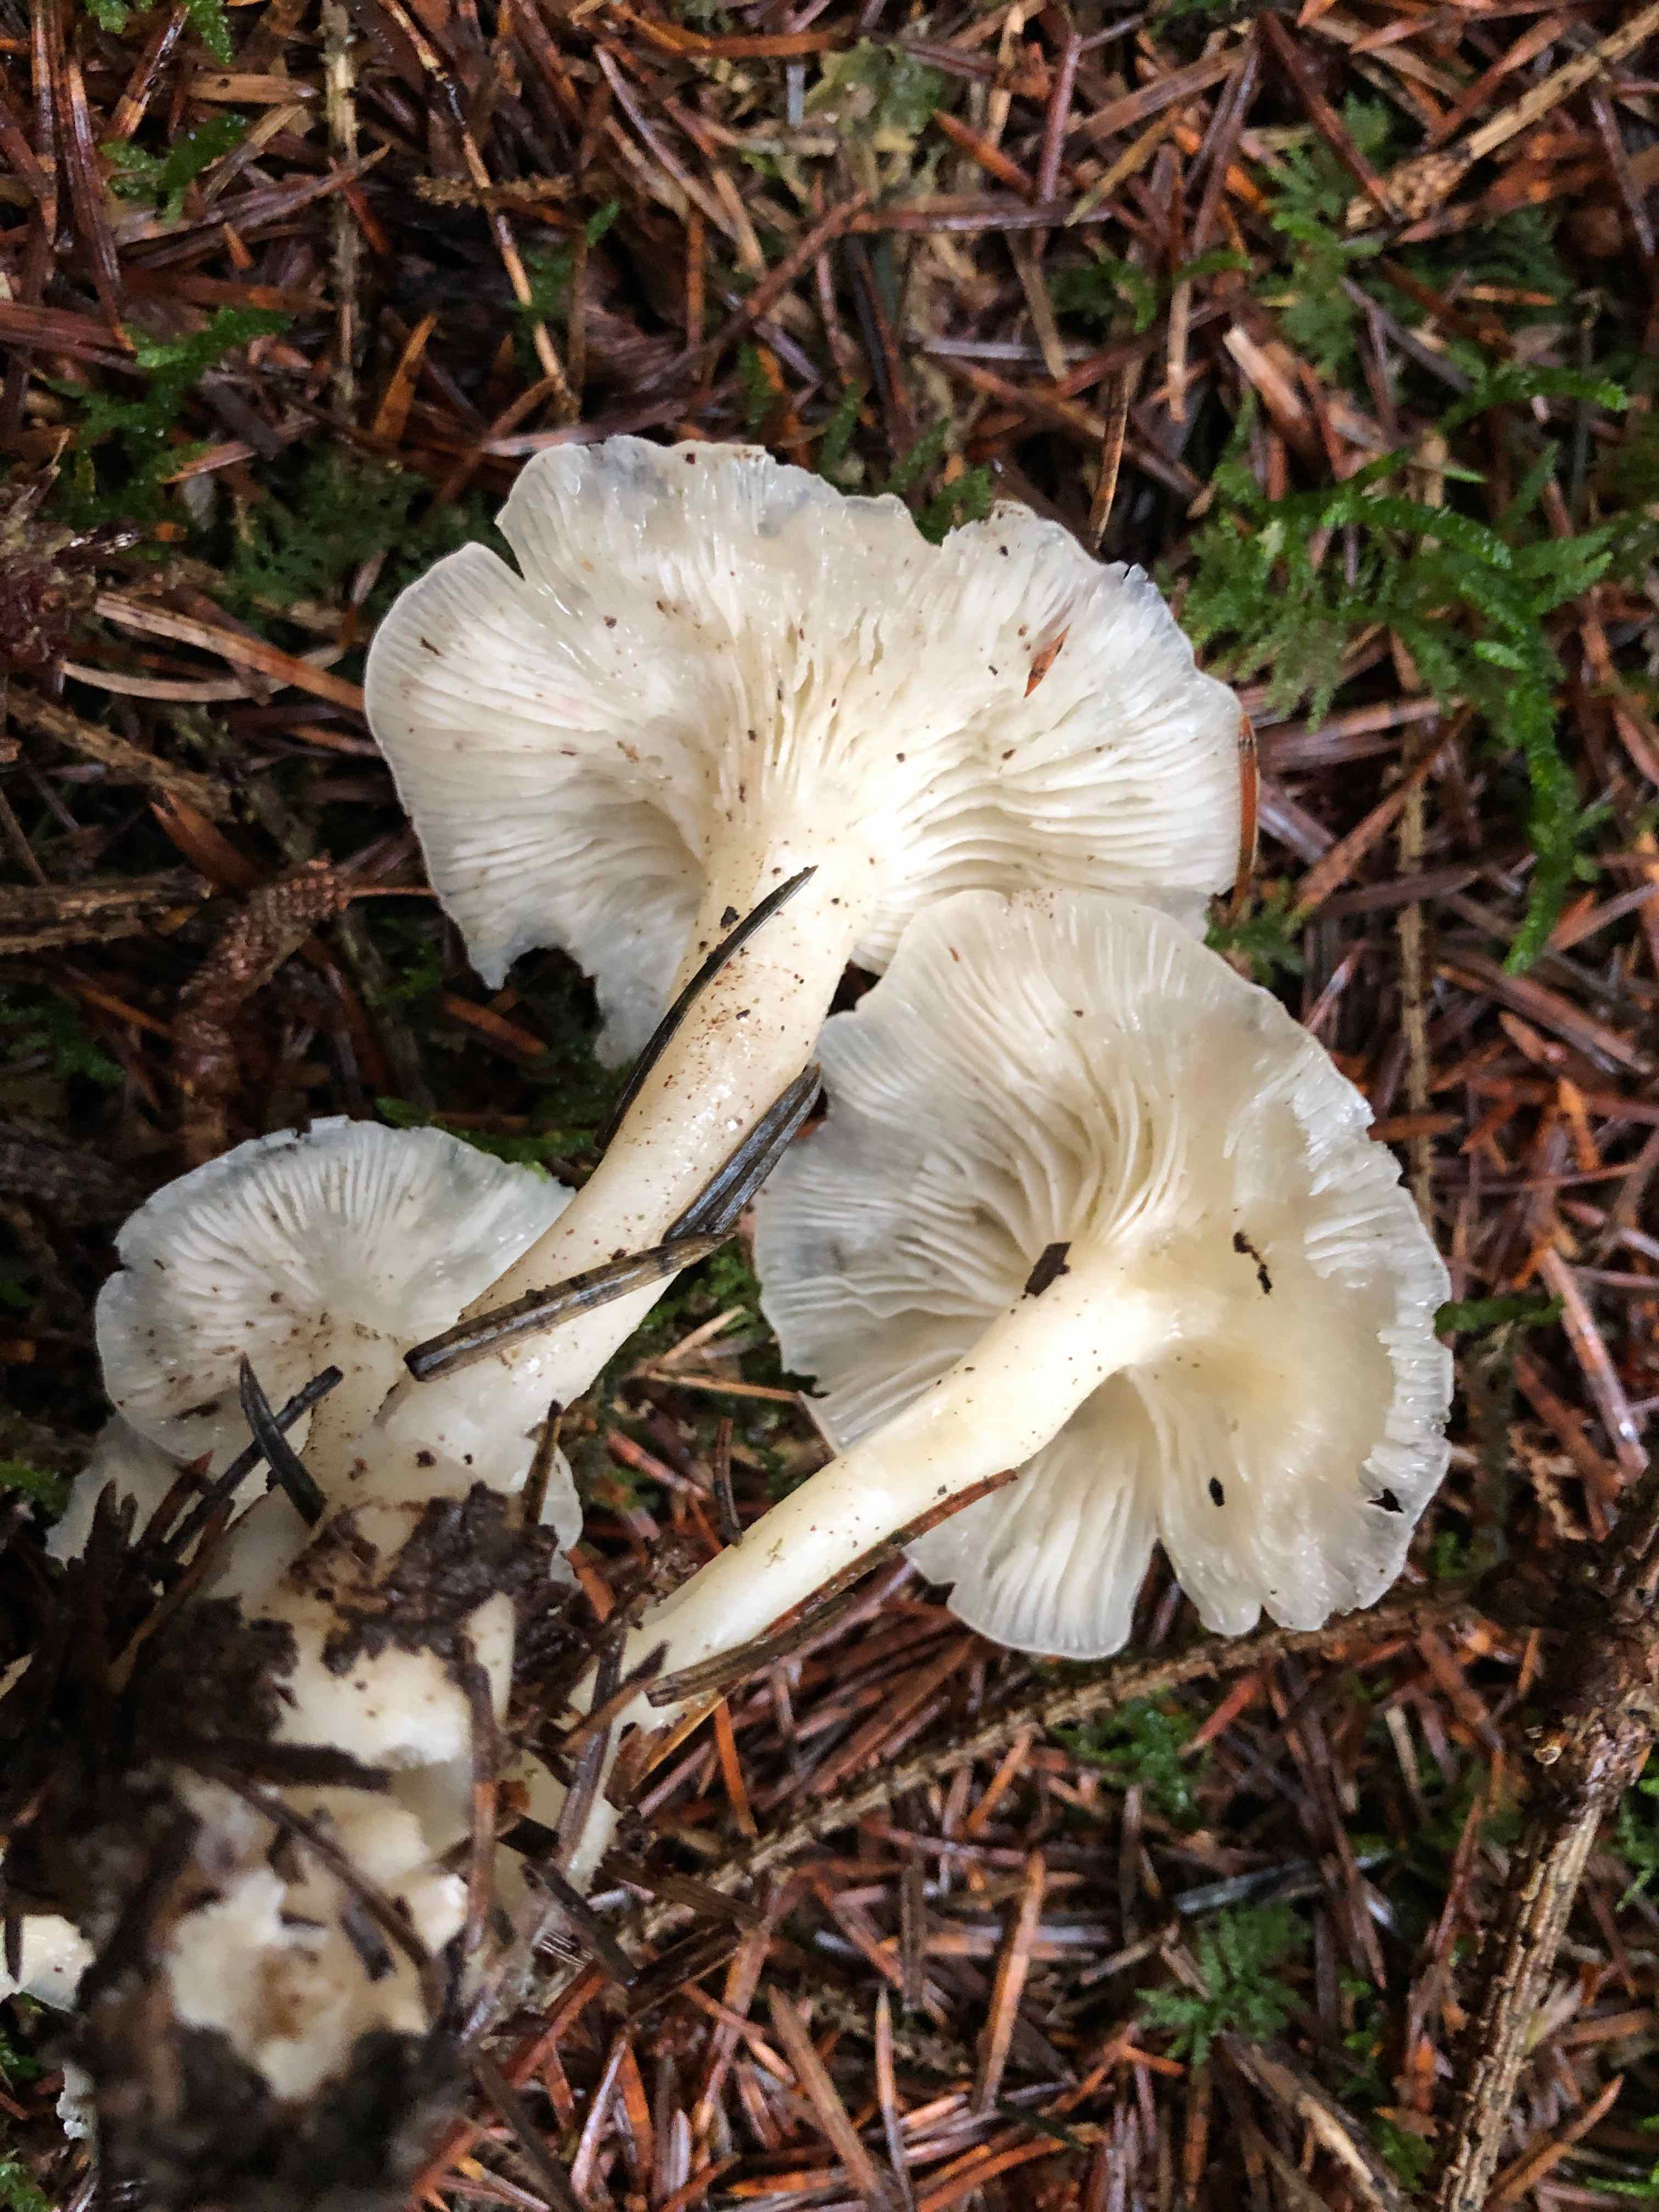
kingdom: Fungi
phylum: Basidiomycota
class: Agaricomycetes
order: Agaricales
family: Tricholomataceae
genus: Leucocybe
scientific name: Leucocybe connata
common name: knippe-tragthat
